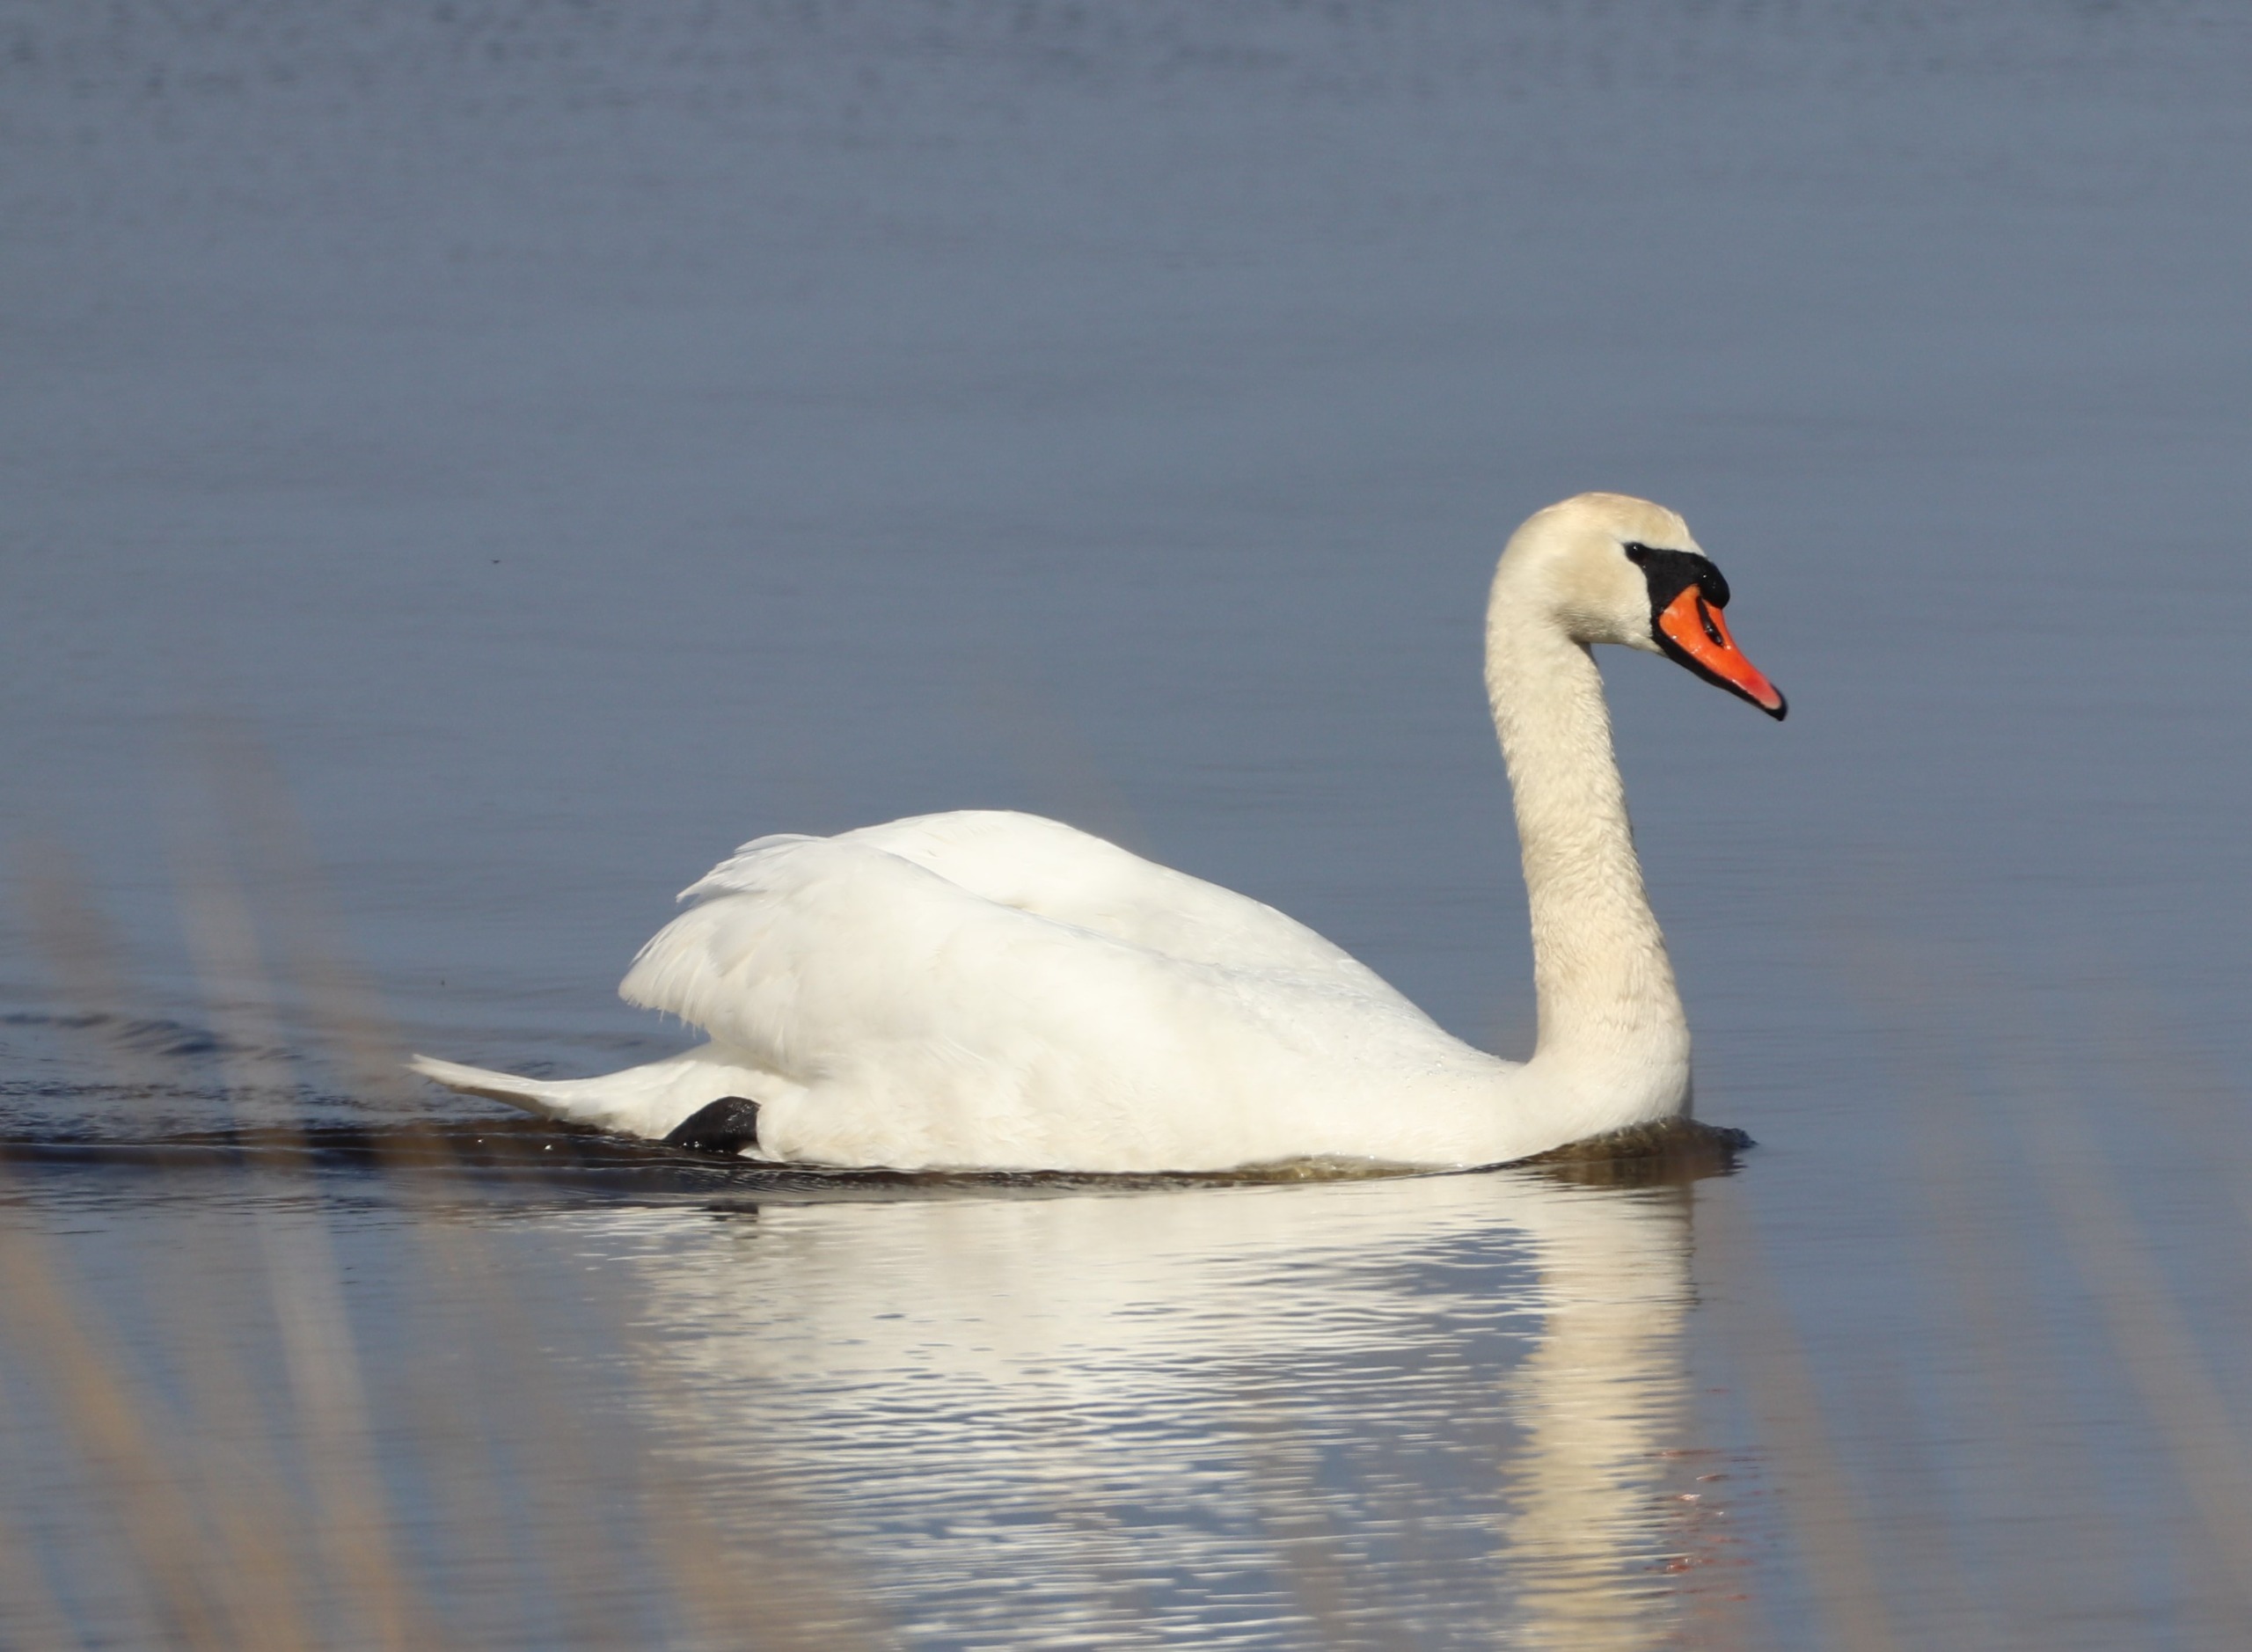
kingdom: Animalia
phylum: Chordata
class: Aves
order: Anseriformes
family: Anatidae
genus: Cygnus
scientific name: Cygnus olor
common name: Knopsvane
